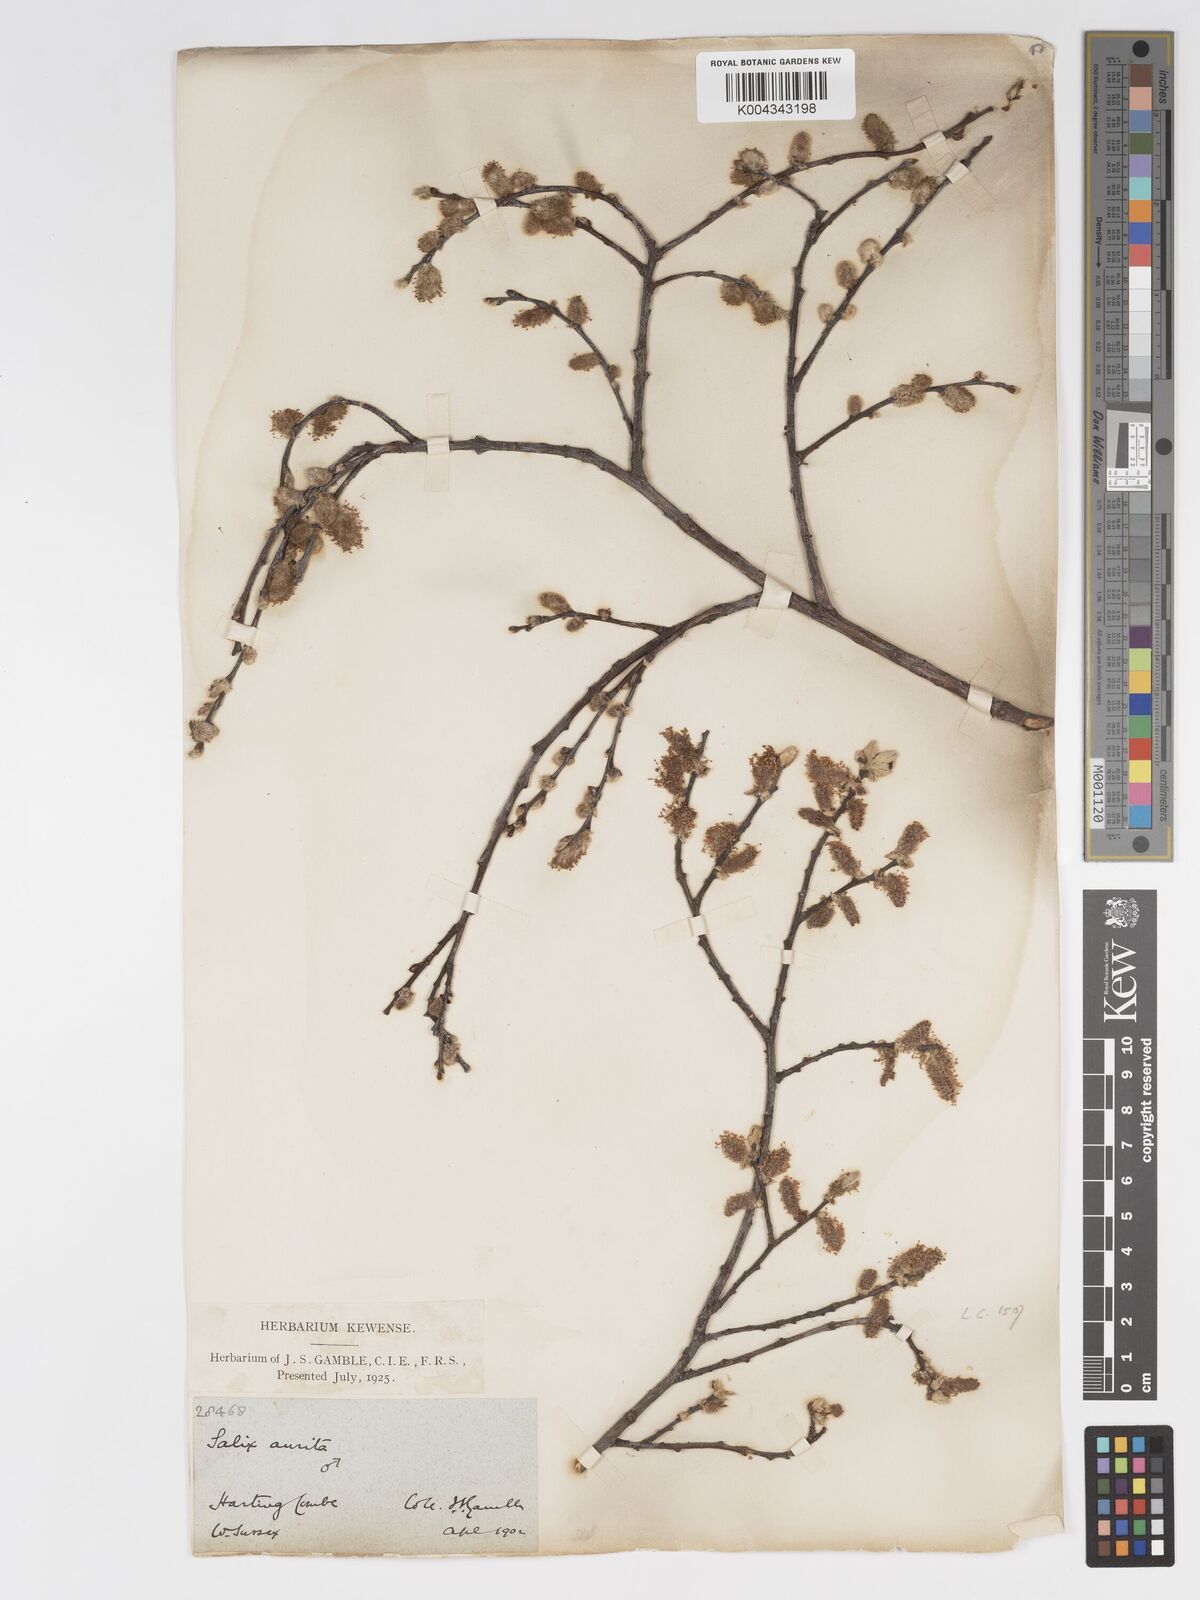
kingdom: Plantae
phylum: Tracheophyta
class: Magnoliopsida
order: Malpighiales
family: Salicaceae
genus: Salix
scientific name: Salix aurita
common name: Eared willow
